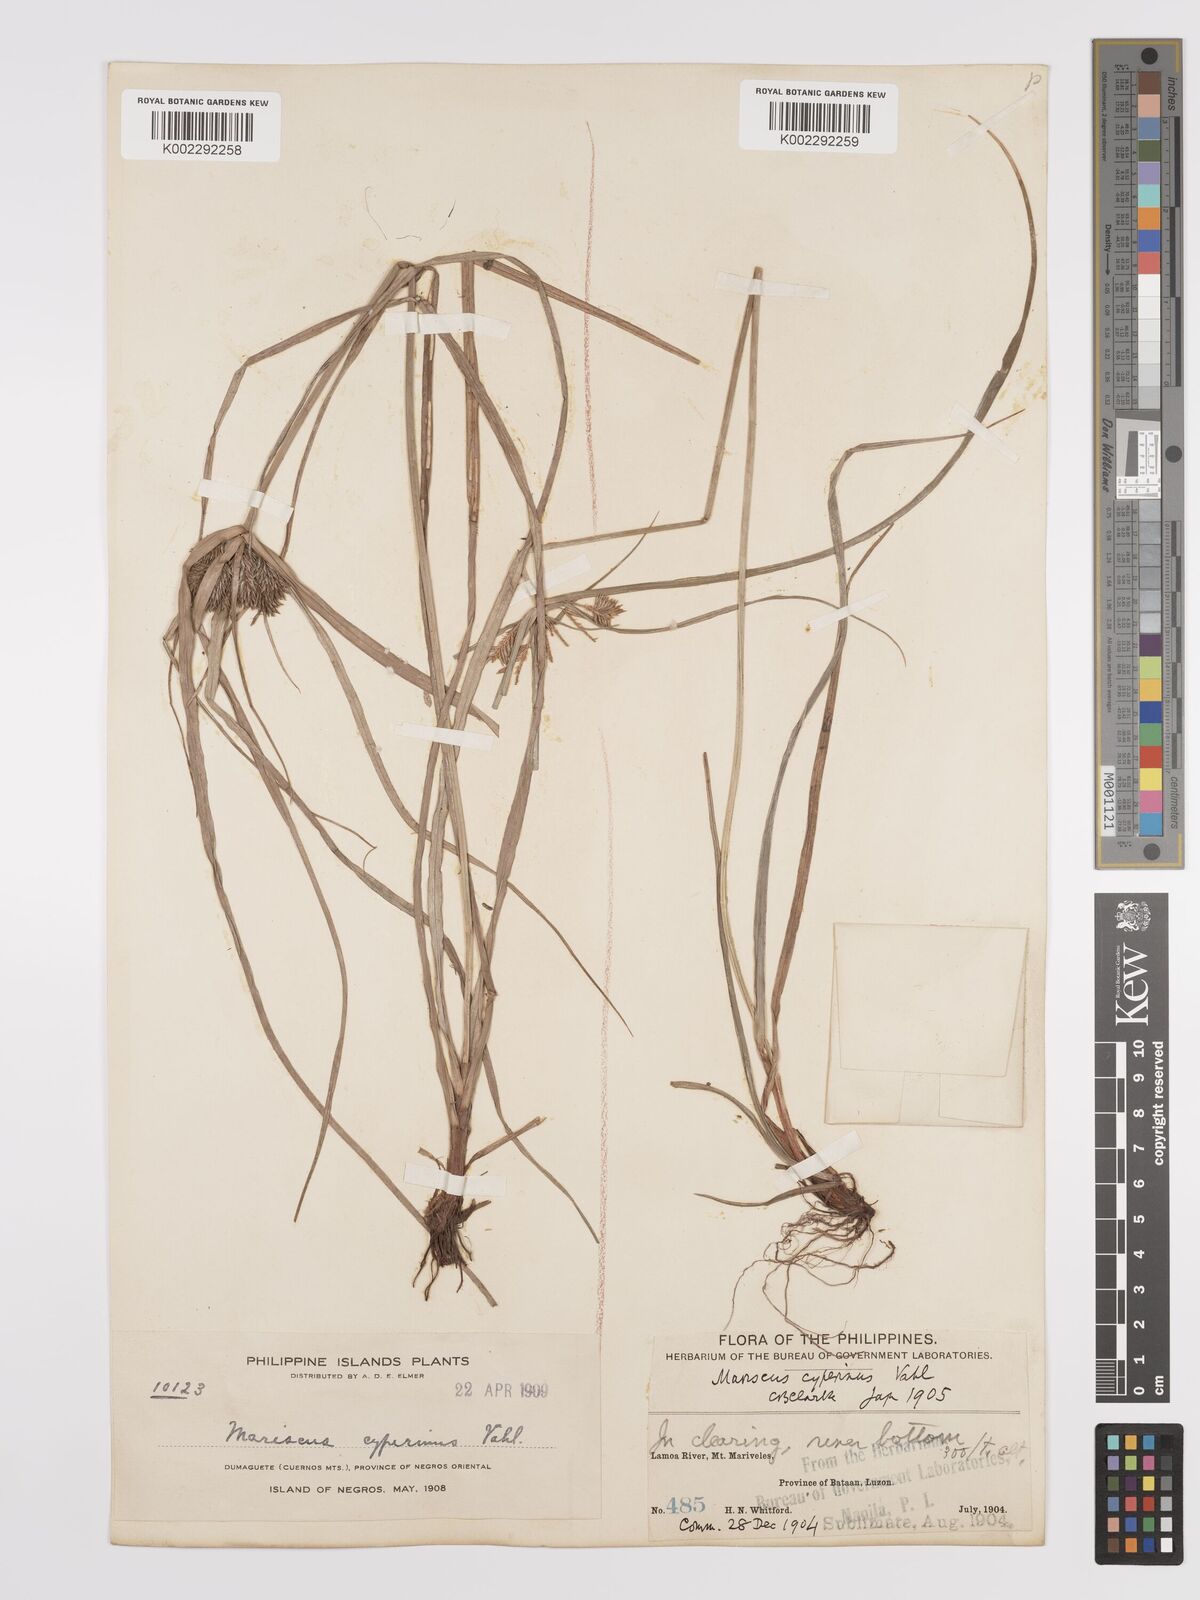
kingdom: Plantae
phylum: Tracheophyta
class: Liliopsida
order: Poales
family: Cyperaceae
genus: Cyperus
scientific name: Cyperus cyperinus
